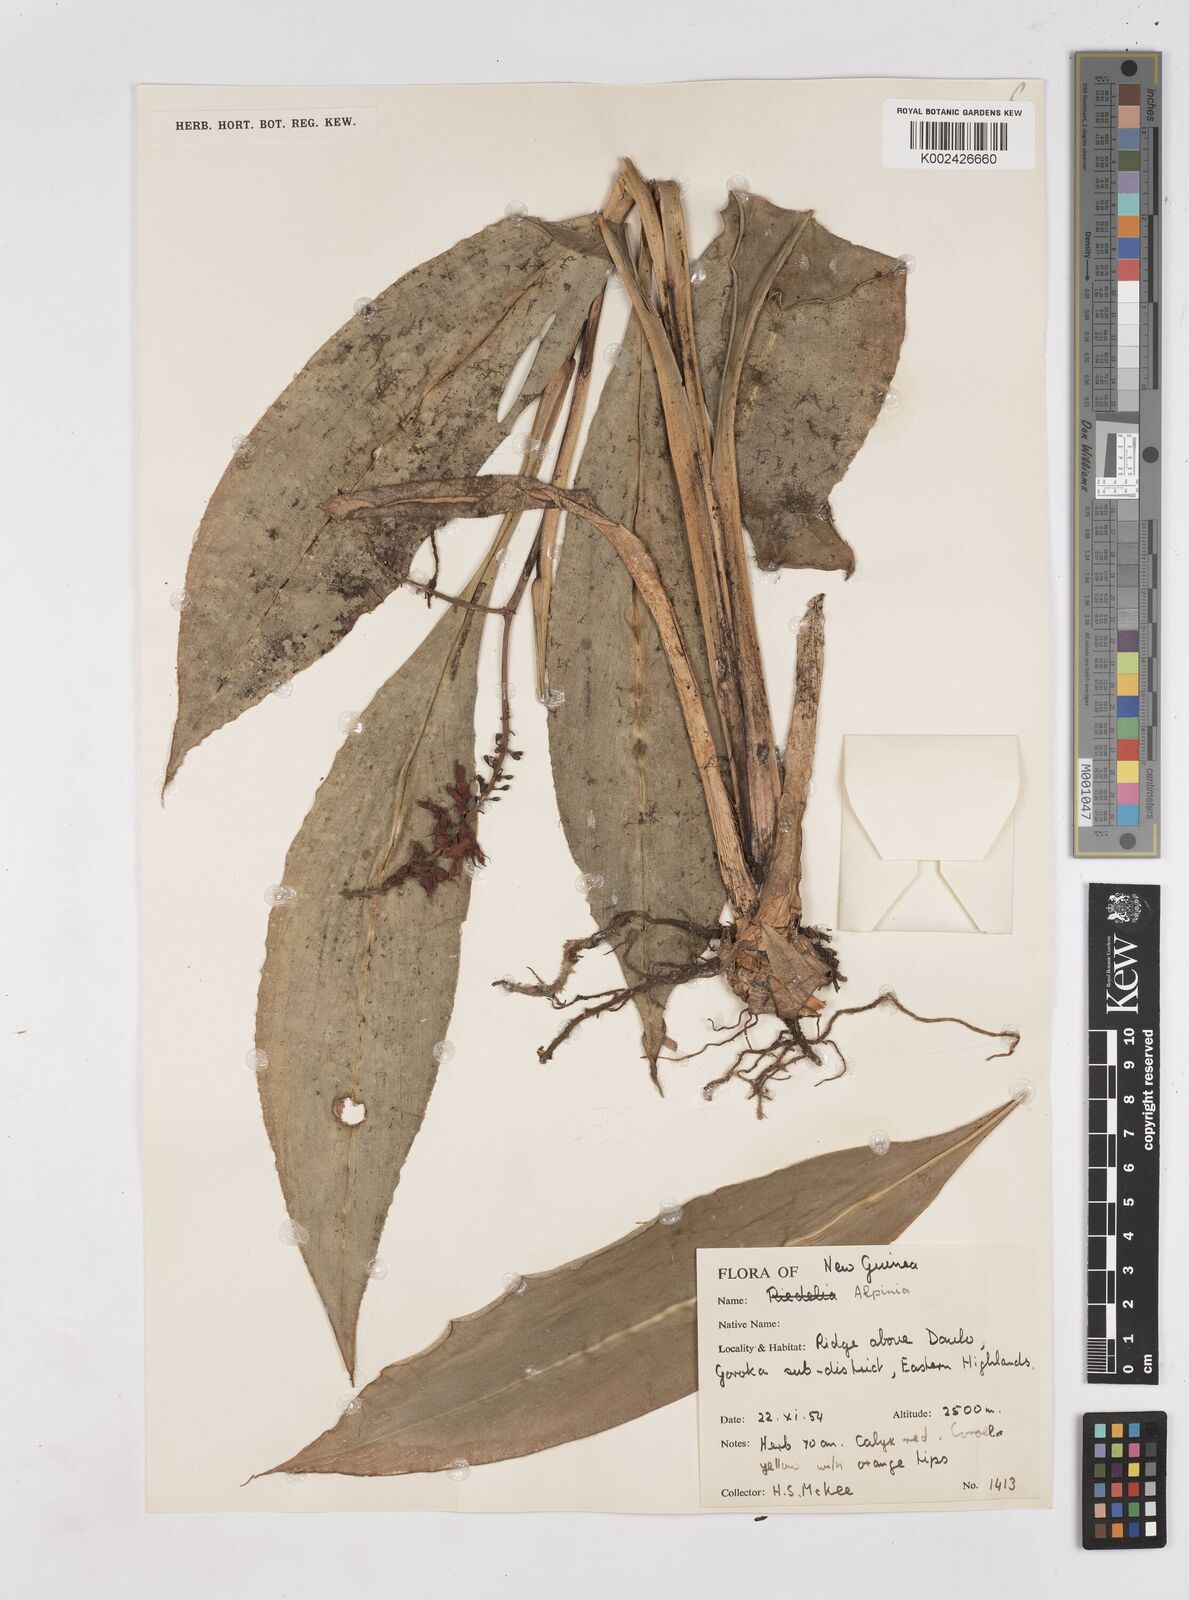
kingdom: Plantae
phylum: Tracheophyta
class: Liliopsida
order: Zingiberales
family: Zingiberaceae
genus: Riedelia
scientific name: Riedelia
